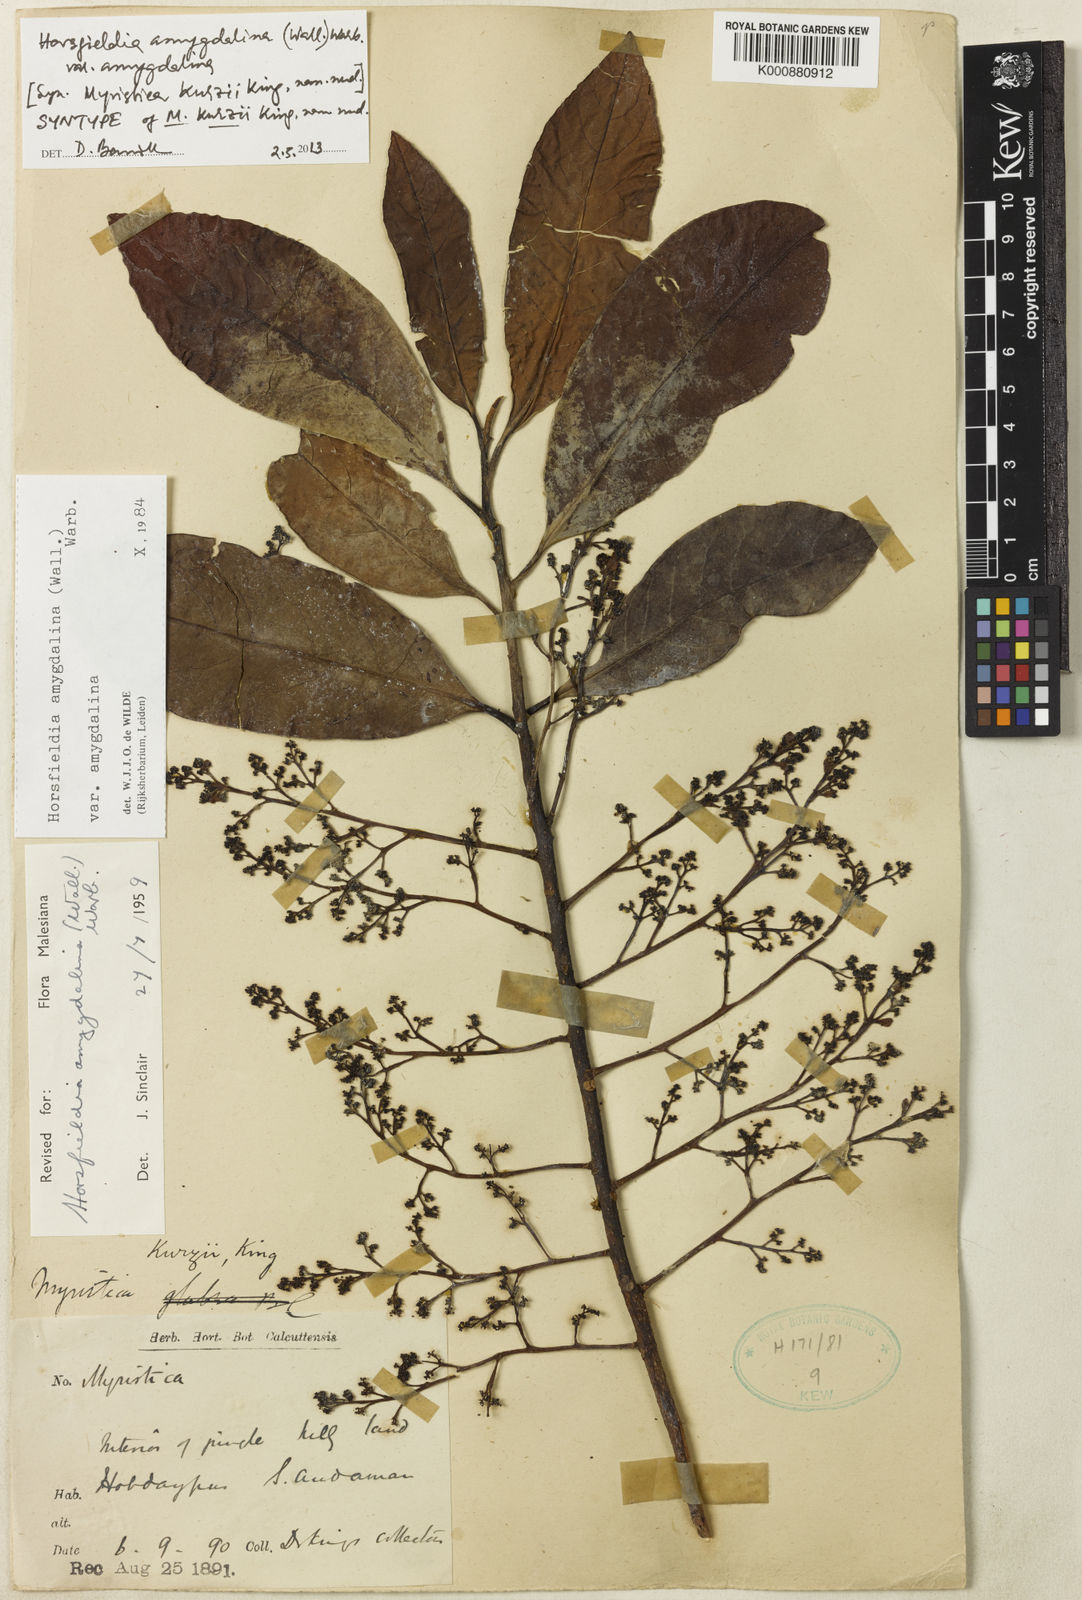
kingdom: Plantae
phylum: Tracheophyta
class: Magnoliopsida
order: Magnoliales
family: Myristicaceae
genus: Horsfieldia
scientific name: Horsfieldia amygdalina
